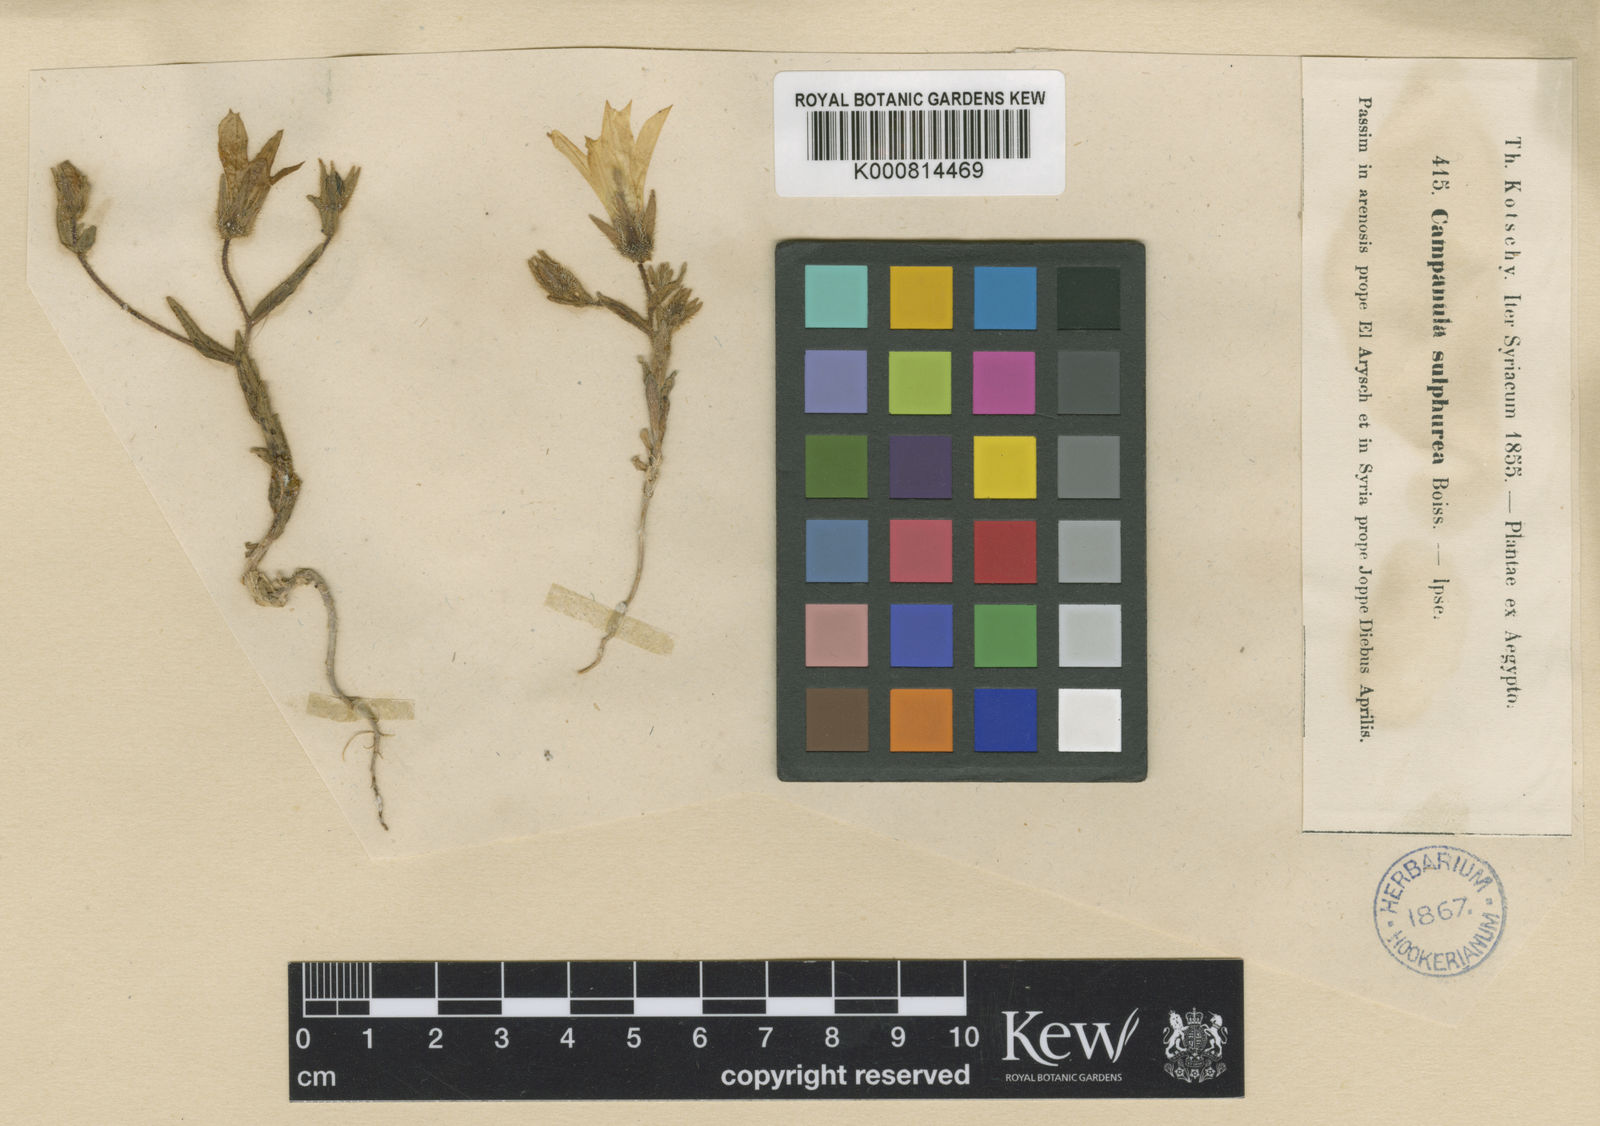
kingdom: Plantae
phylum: Tracheophyta
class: Magnoliopsida
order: Asterales
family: Campanulaceae
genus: Campanula
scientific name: Campanula sulphurea
